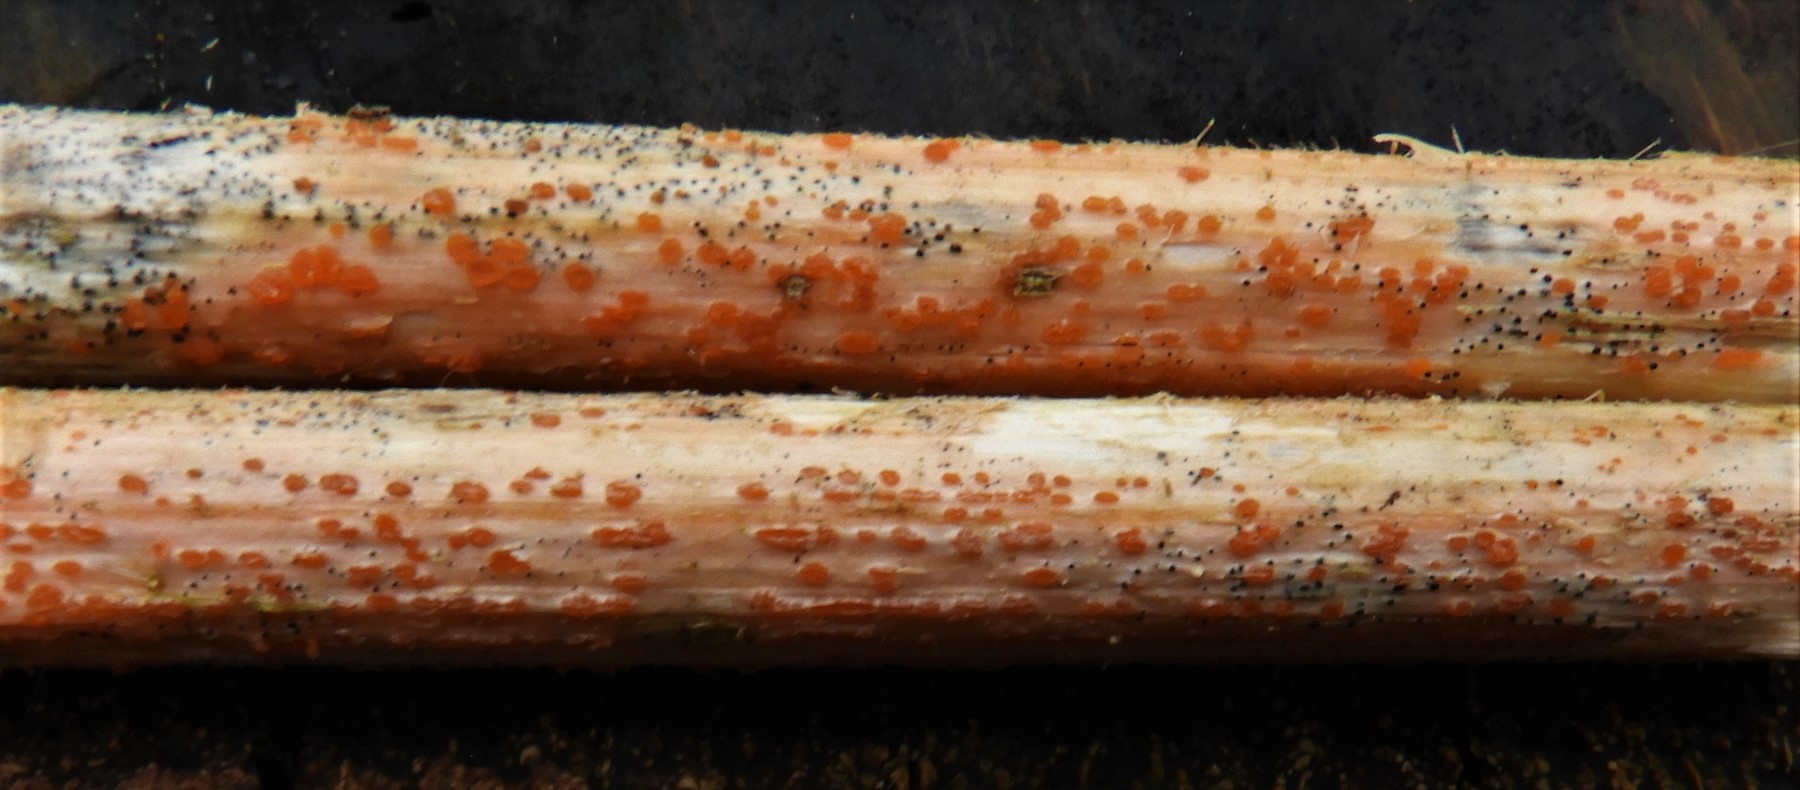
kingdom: Fungi
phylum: Ascomycota
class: Leotiomycetes
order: Helotiales
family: Calloriaceae
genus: Calloria
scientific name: Calloria urticae
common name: nælde-orangeskive
